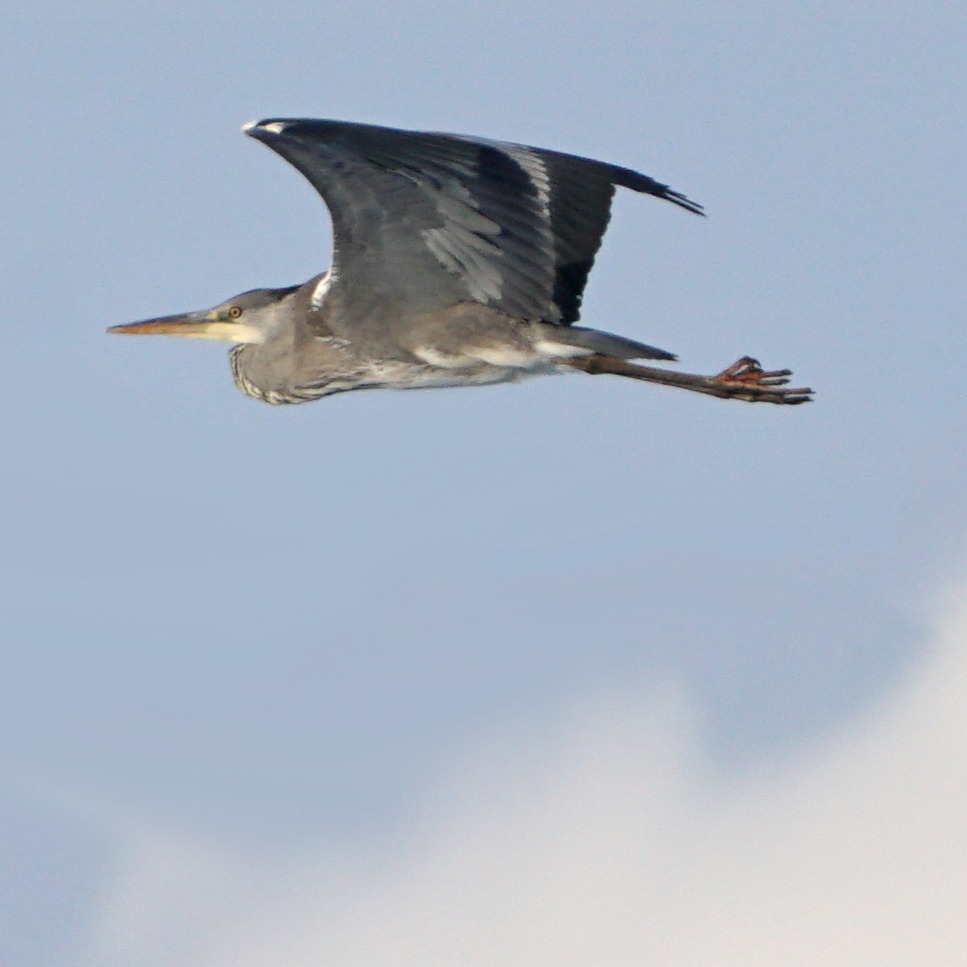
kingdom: Animalia
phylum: Chordata
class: Aves
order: Pelecaniformes
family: Ardeidae
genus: Ardea
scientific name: Ardea cinerea
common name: Fiskehejre
